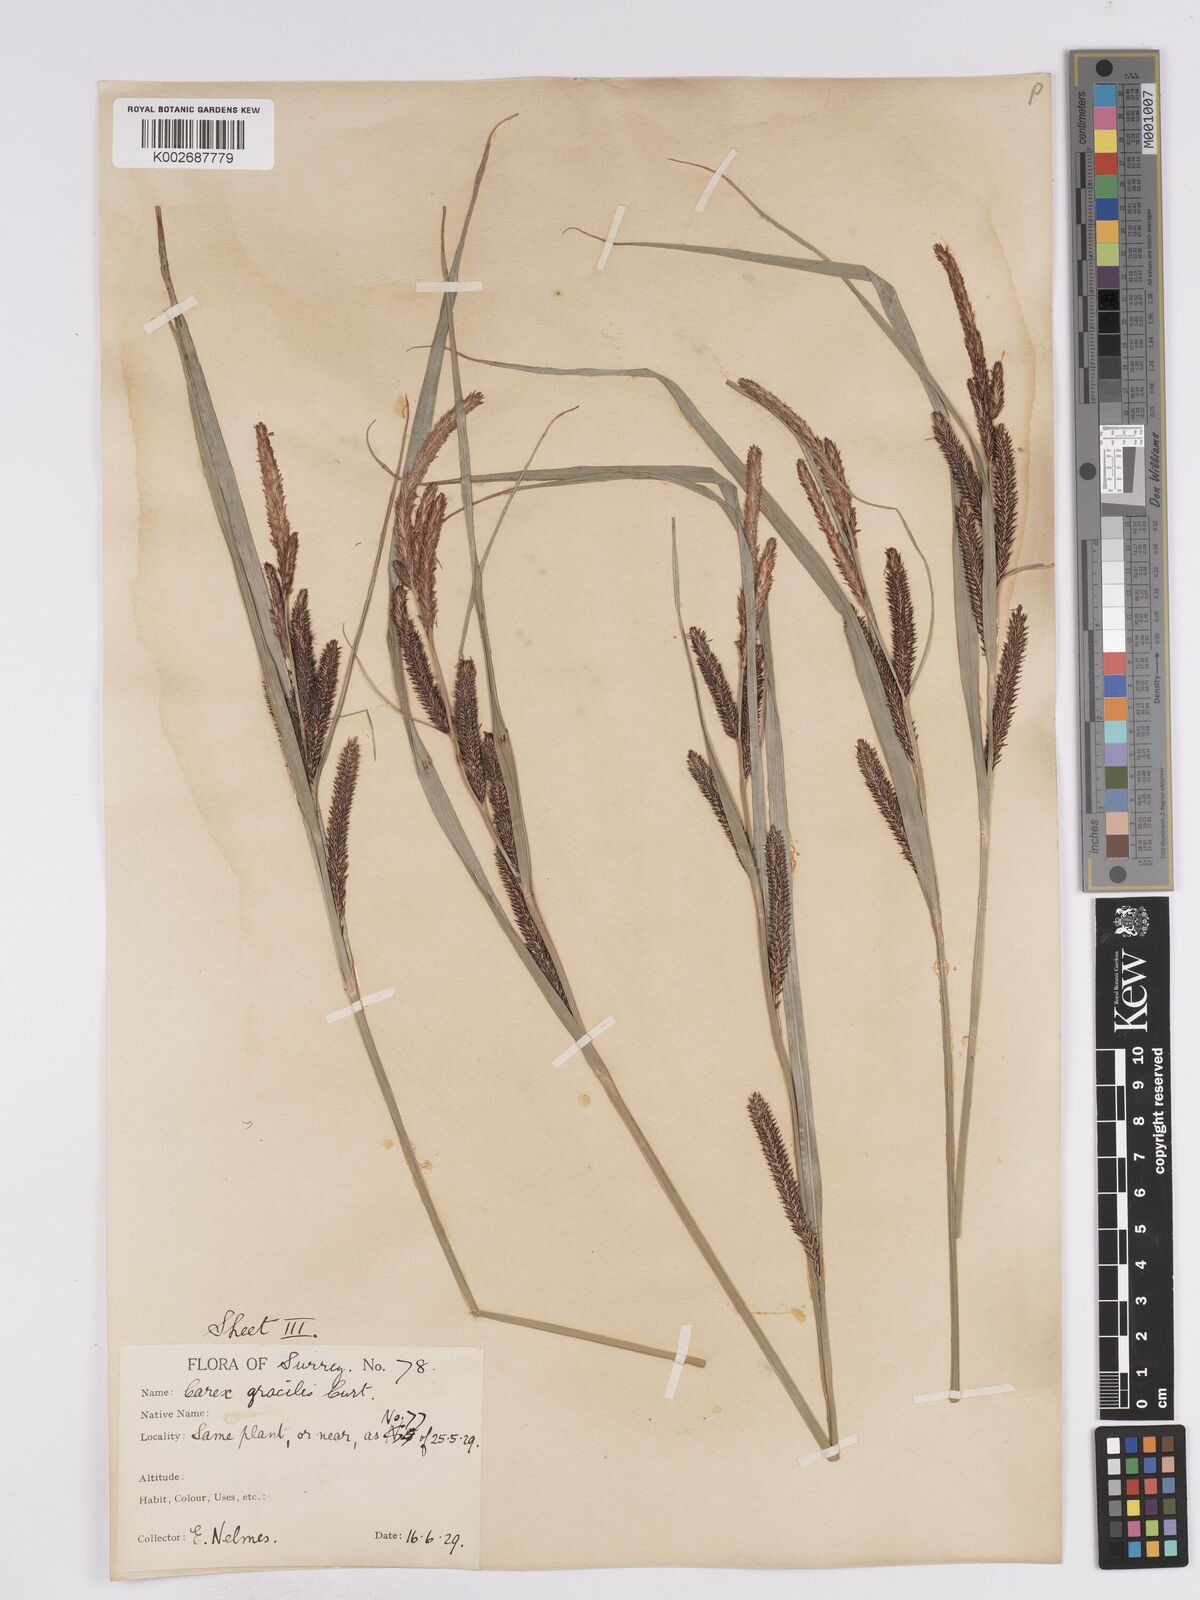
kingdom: Plantae
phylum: Tracheophyta
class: Liliopsida
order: Poales
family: Cyperaceae
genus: Carex
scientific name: Carex acuta
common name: Slender tufted-sedge
